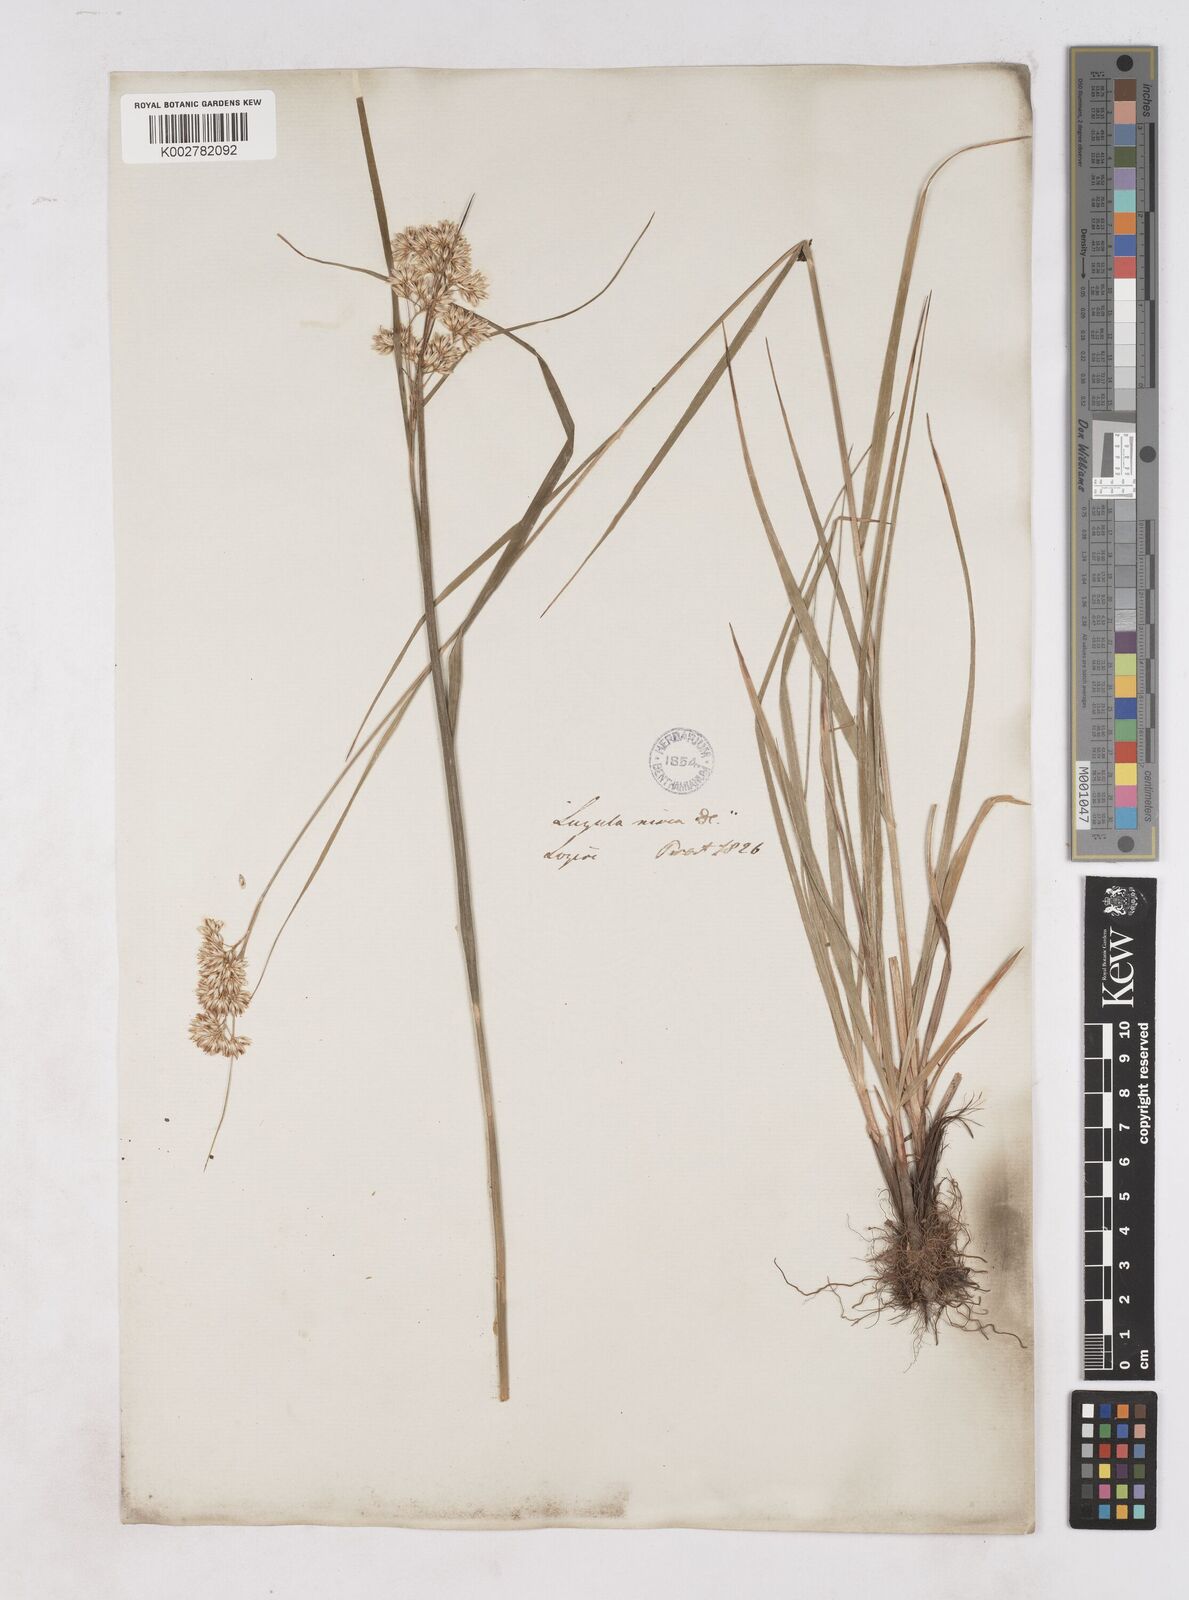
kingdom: Plantae
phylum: Tracheophyta
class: Liliopsida
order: Poales
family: Juncaceae
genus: Luzula
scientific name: Luzula nivea
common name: Snow-white wood-rush
